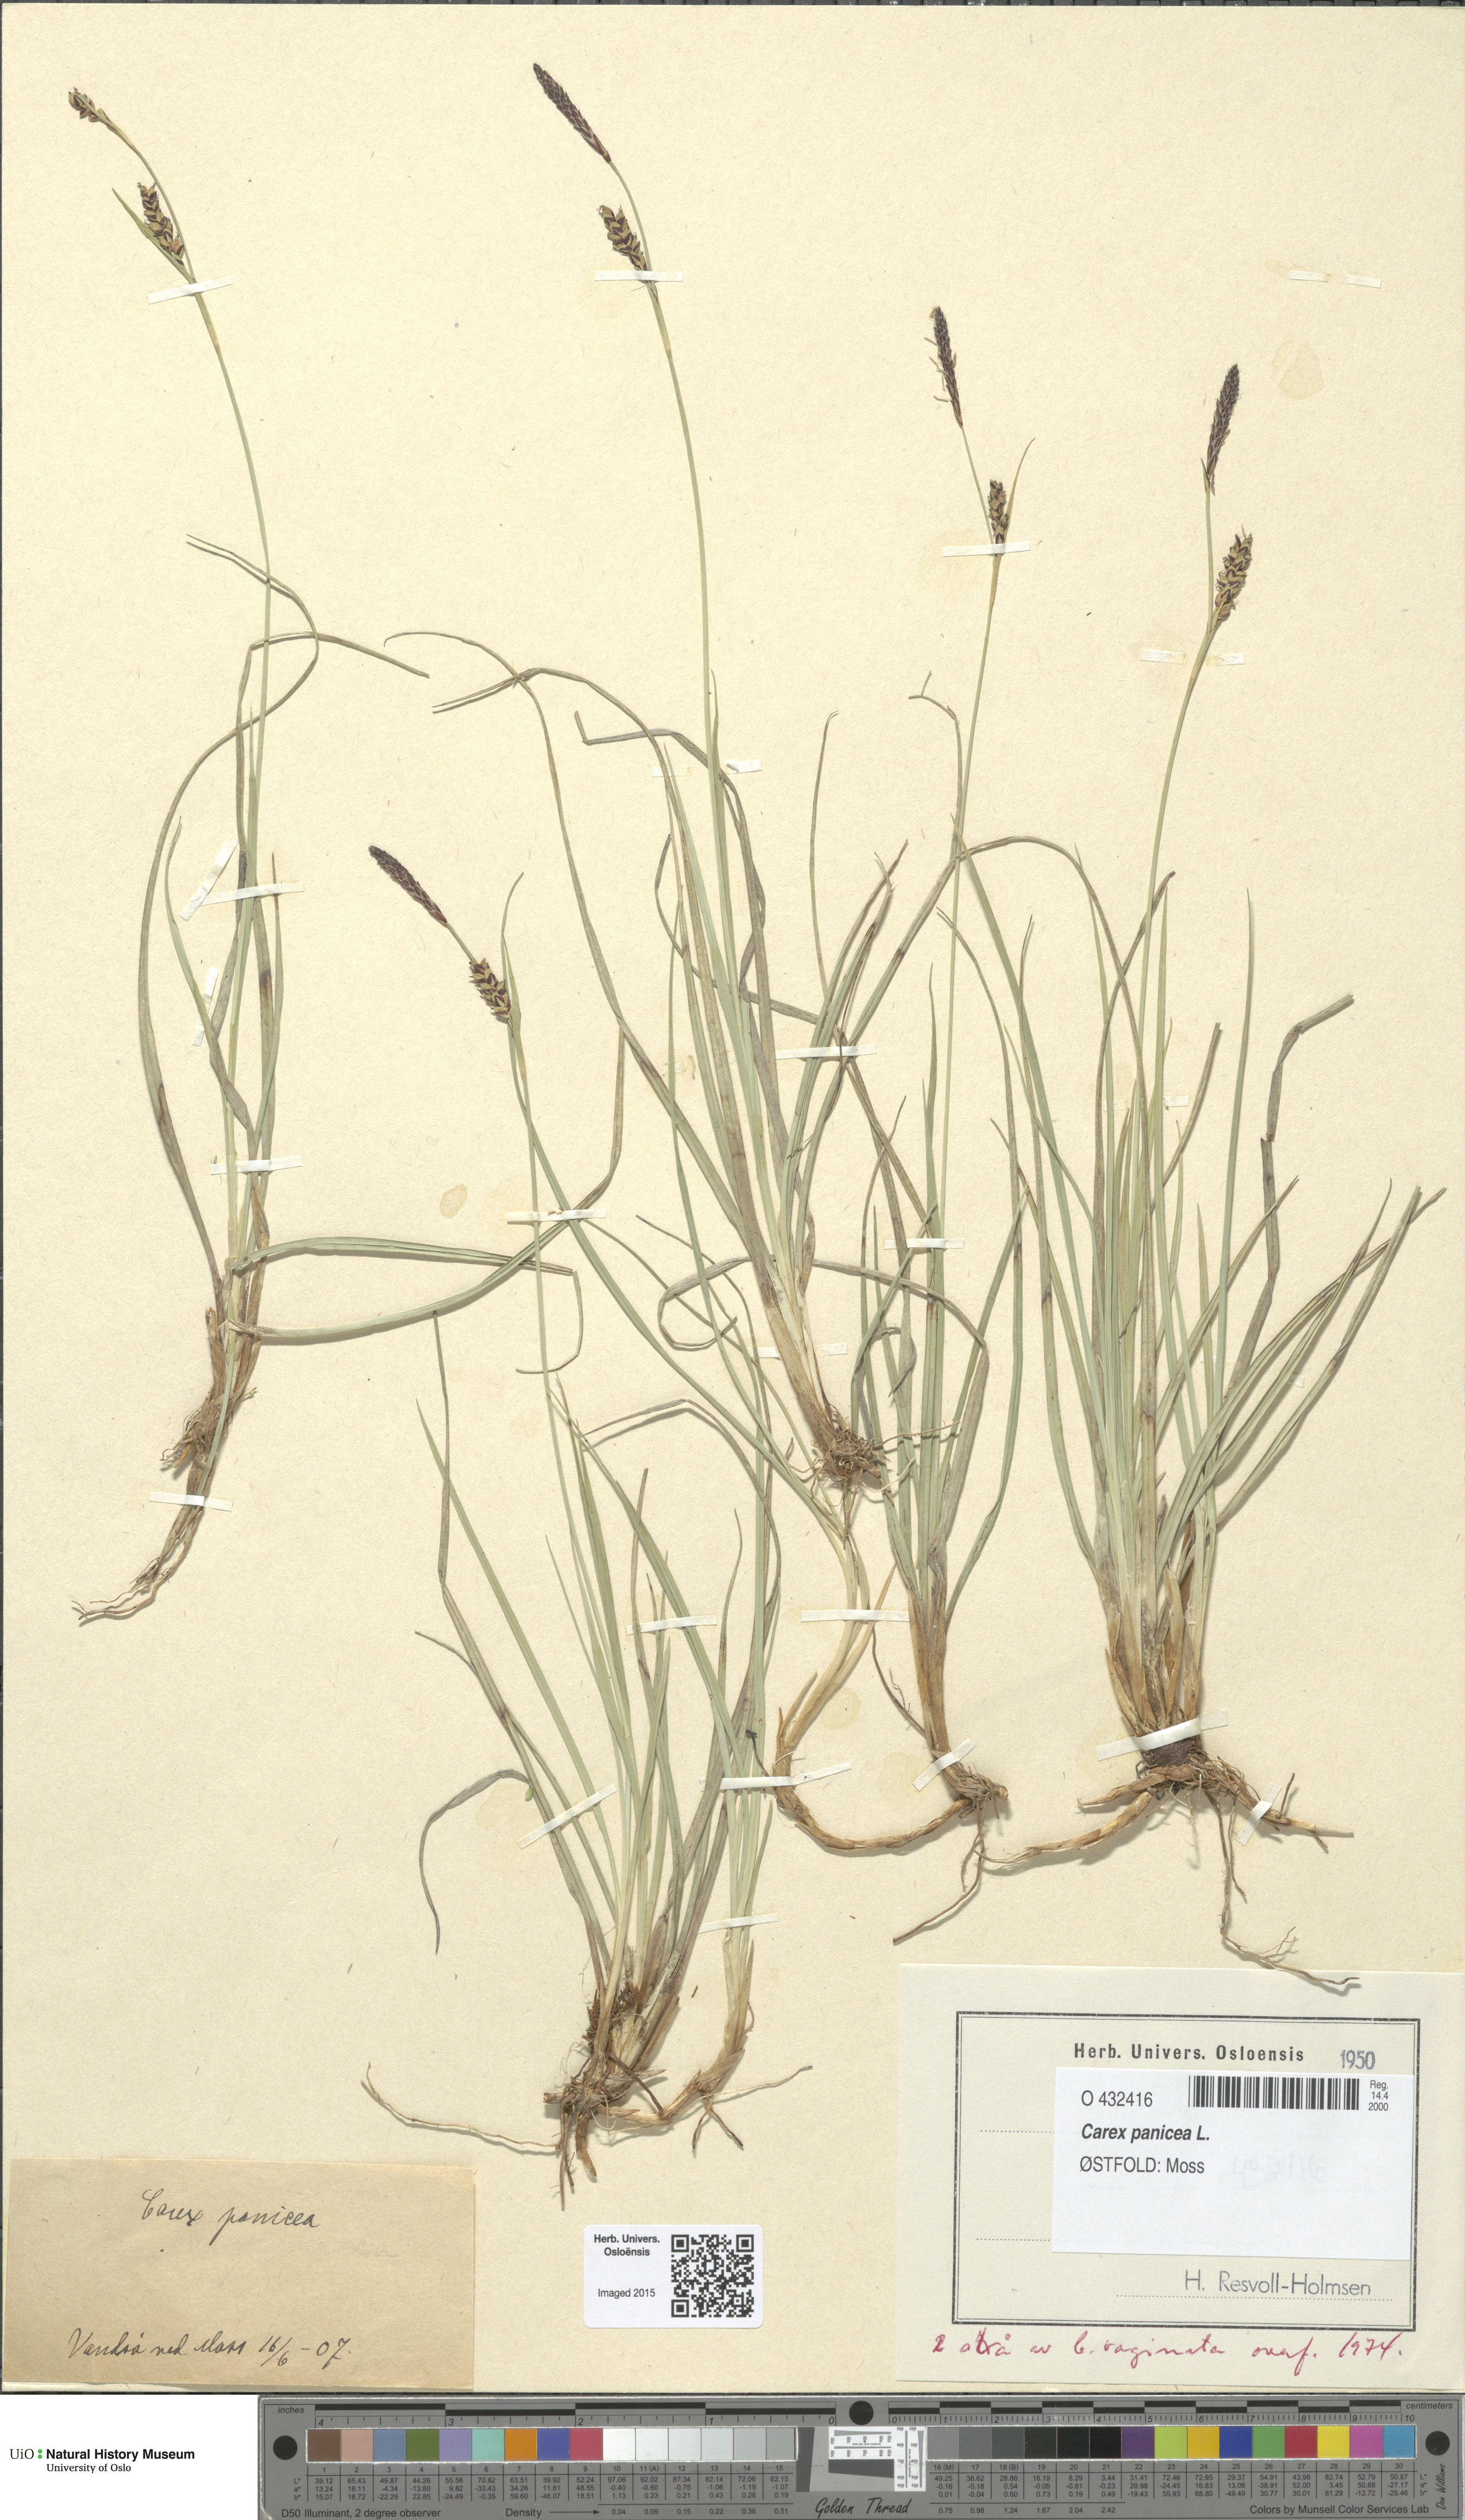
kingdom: Plantae
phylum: Tracheophyta
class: Liliopsida
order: Poales
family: Cyperaceae
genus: Carex
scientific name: Carex panicea
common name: Carnation sedge
